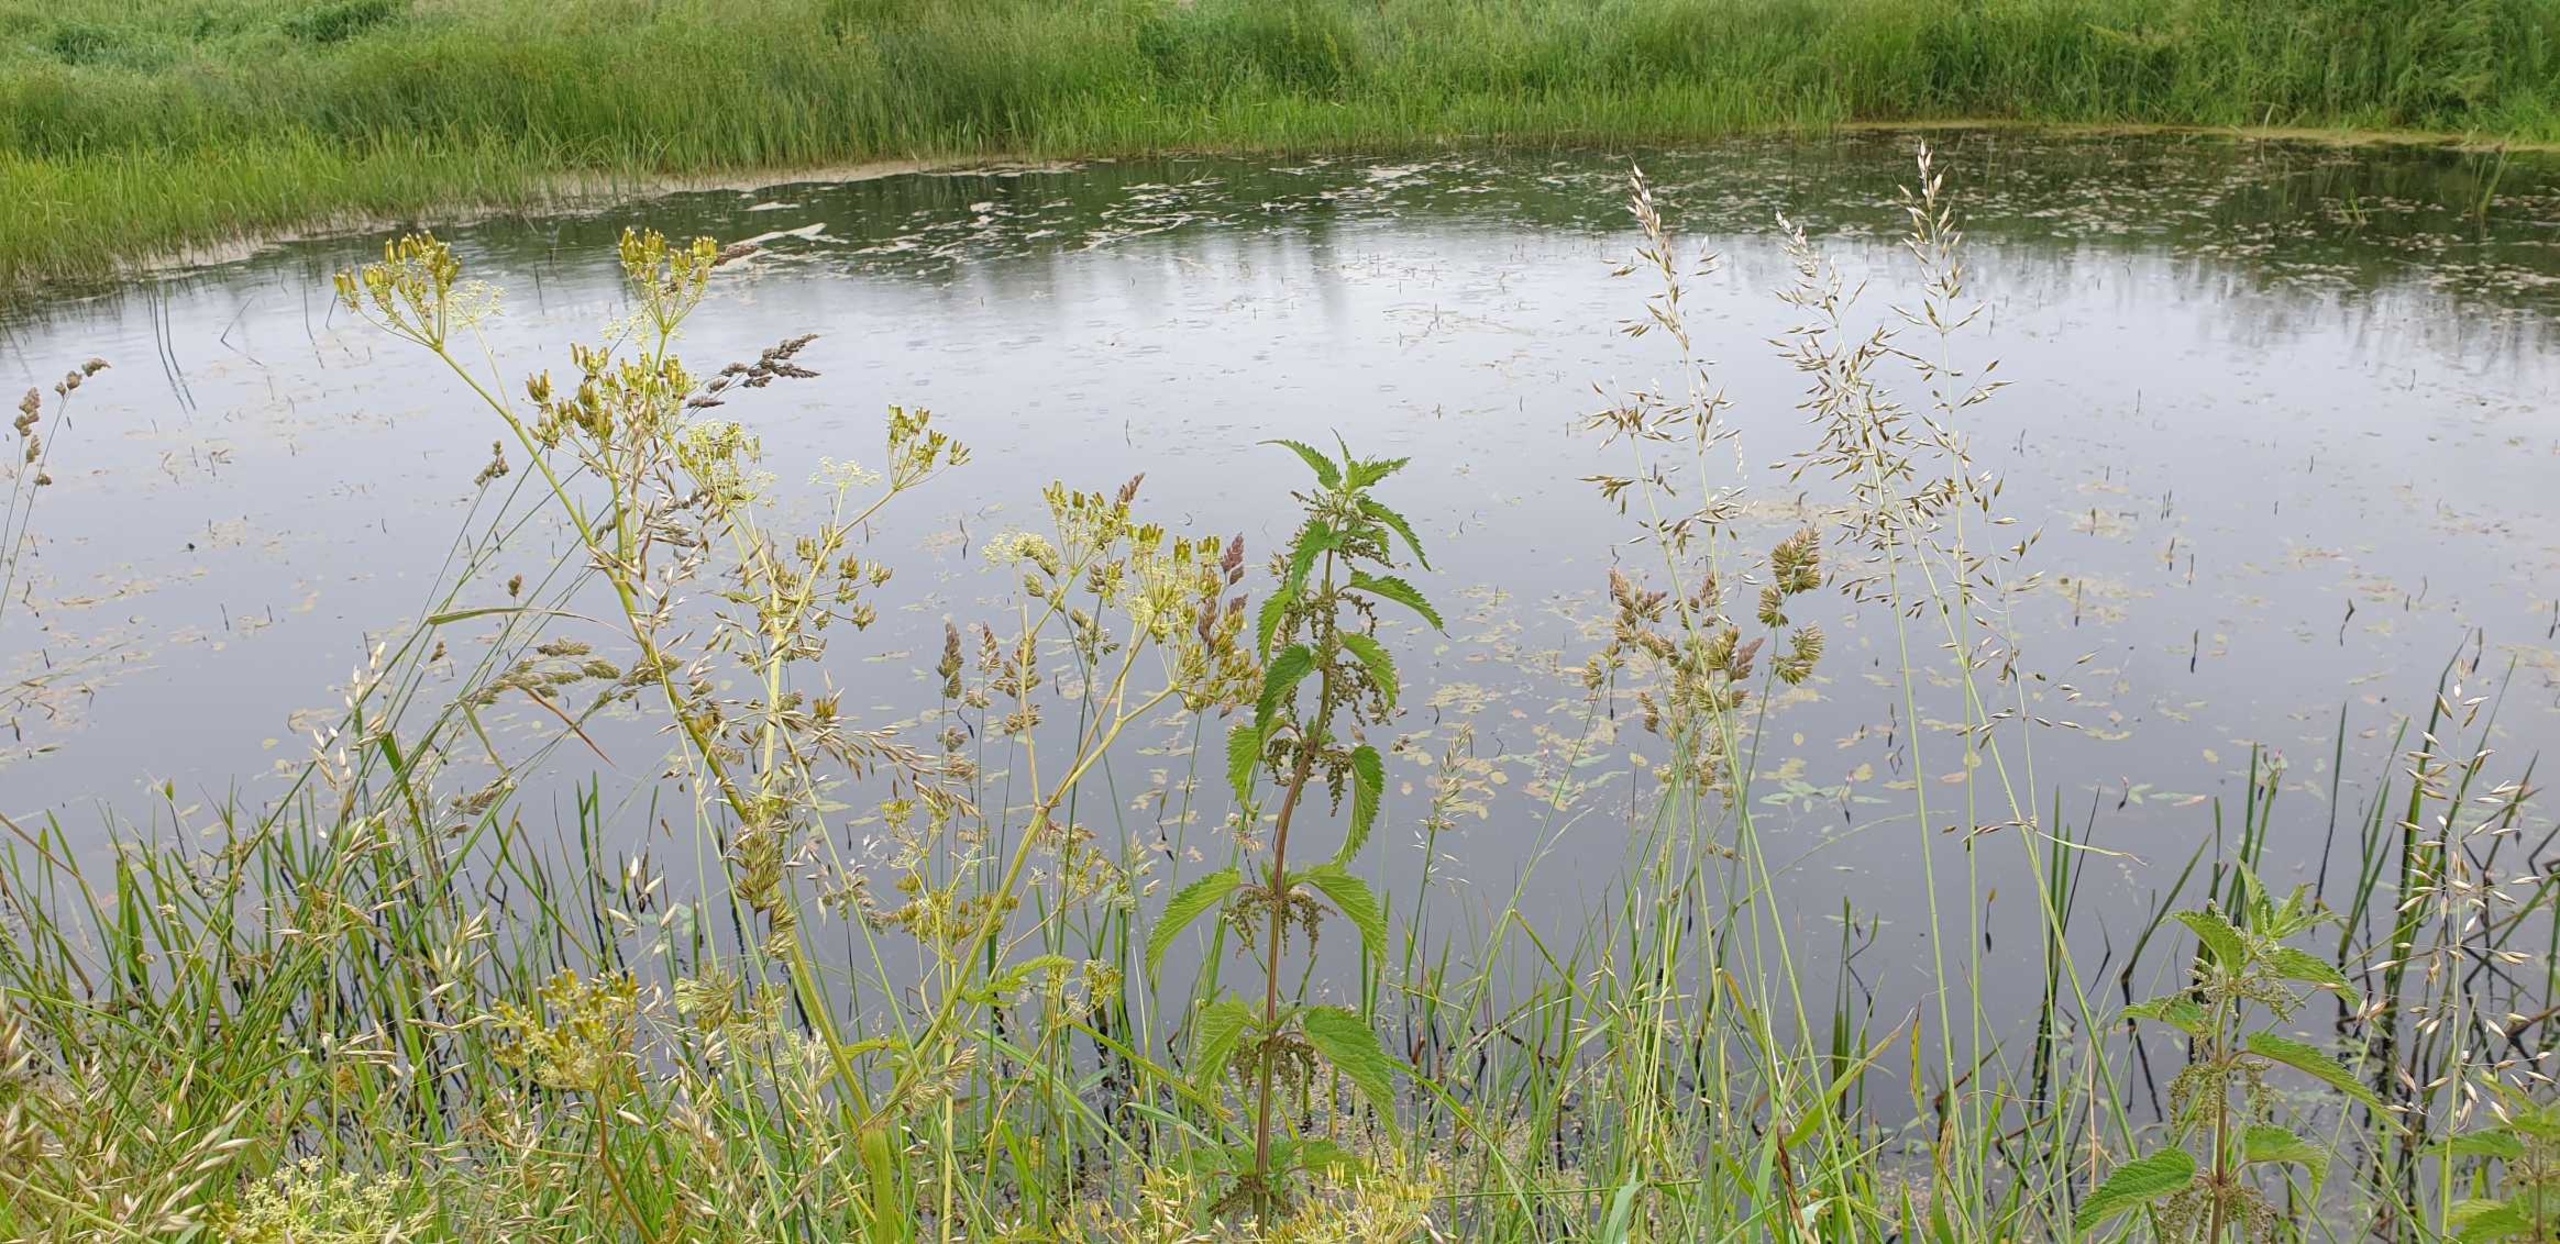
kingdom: Plantae
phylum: Tracheophyta
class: Magnoliopsida
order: Rosales
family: Urticaceae
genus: Urtica
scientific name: Urtica dioica
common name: Stor nælde
